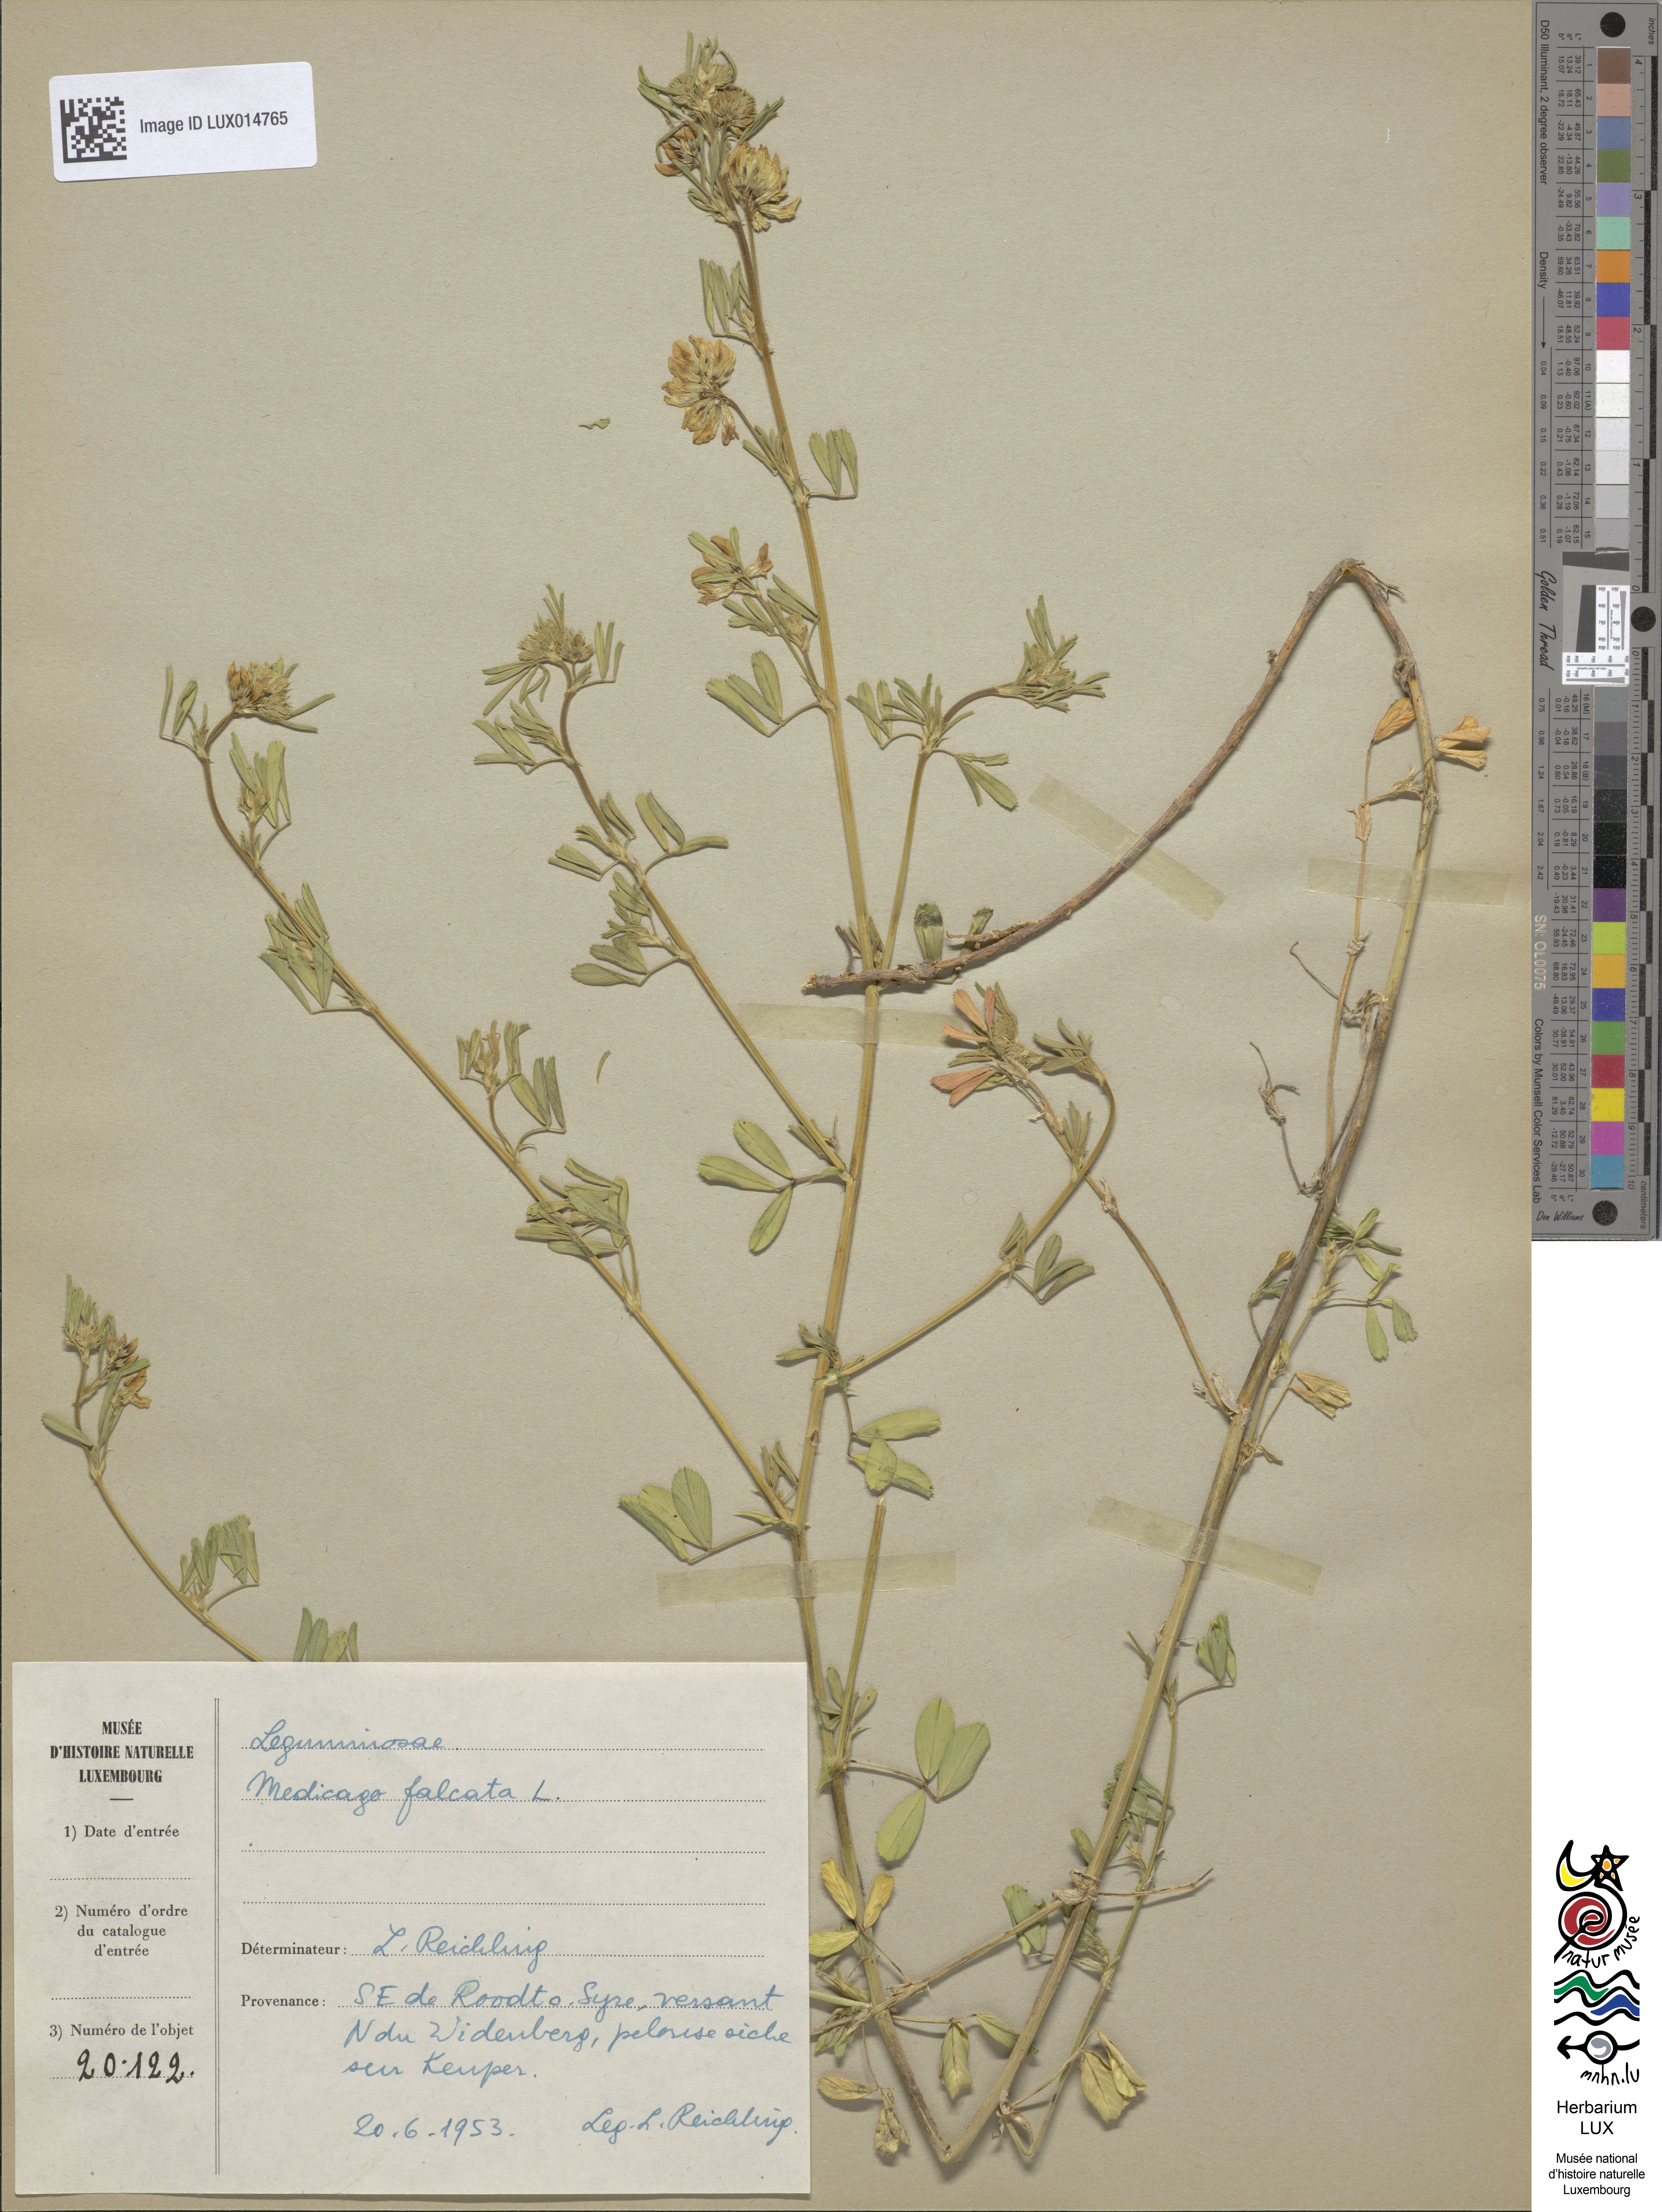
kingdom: Plantae
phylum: Tracheophyta
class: Magnoliopsida
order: Fabales
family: Fabaceae
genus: Medicago
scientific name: Medicago falcata
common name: Sickle medick
